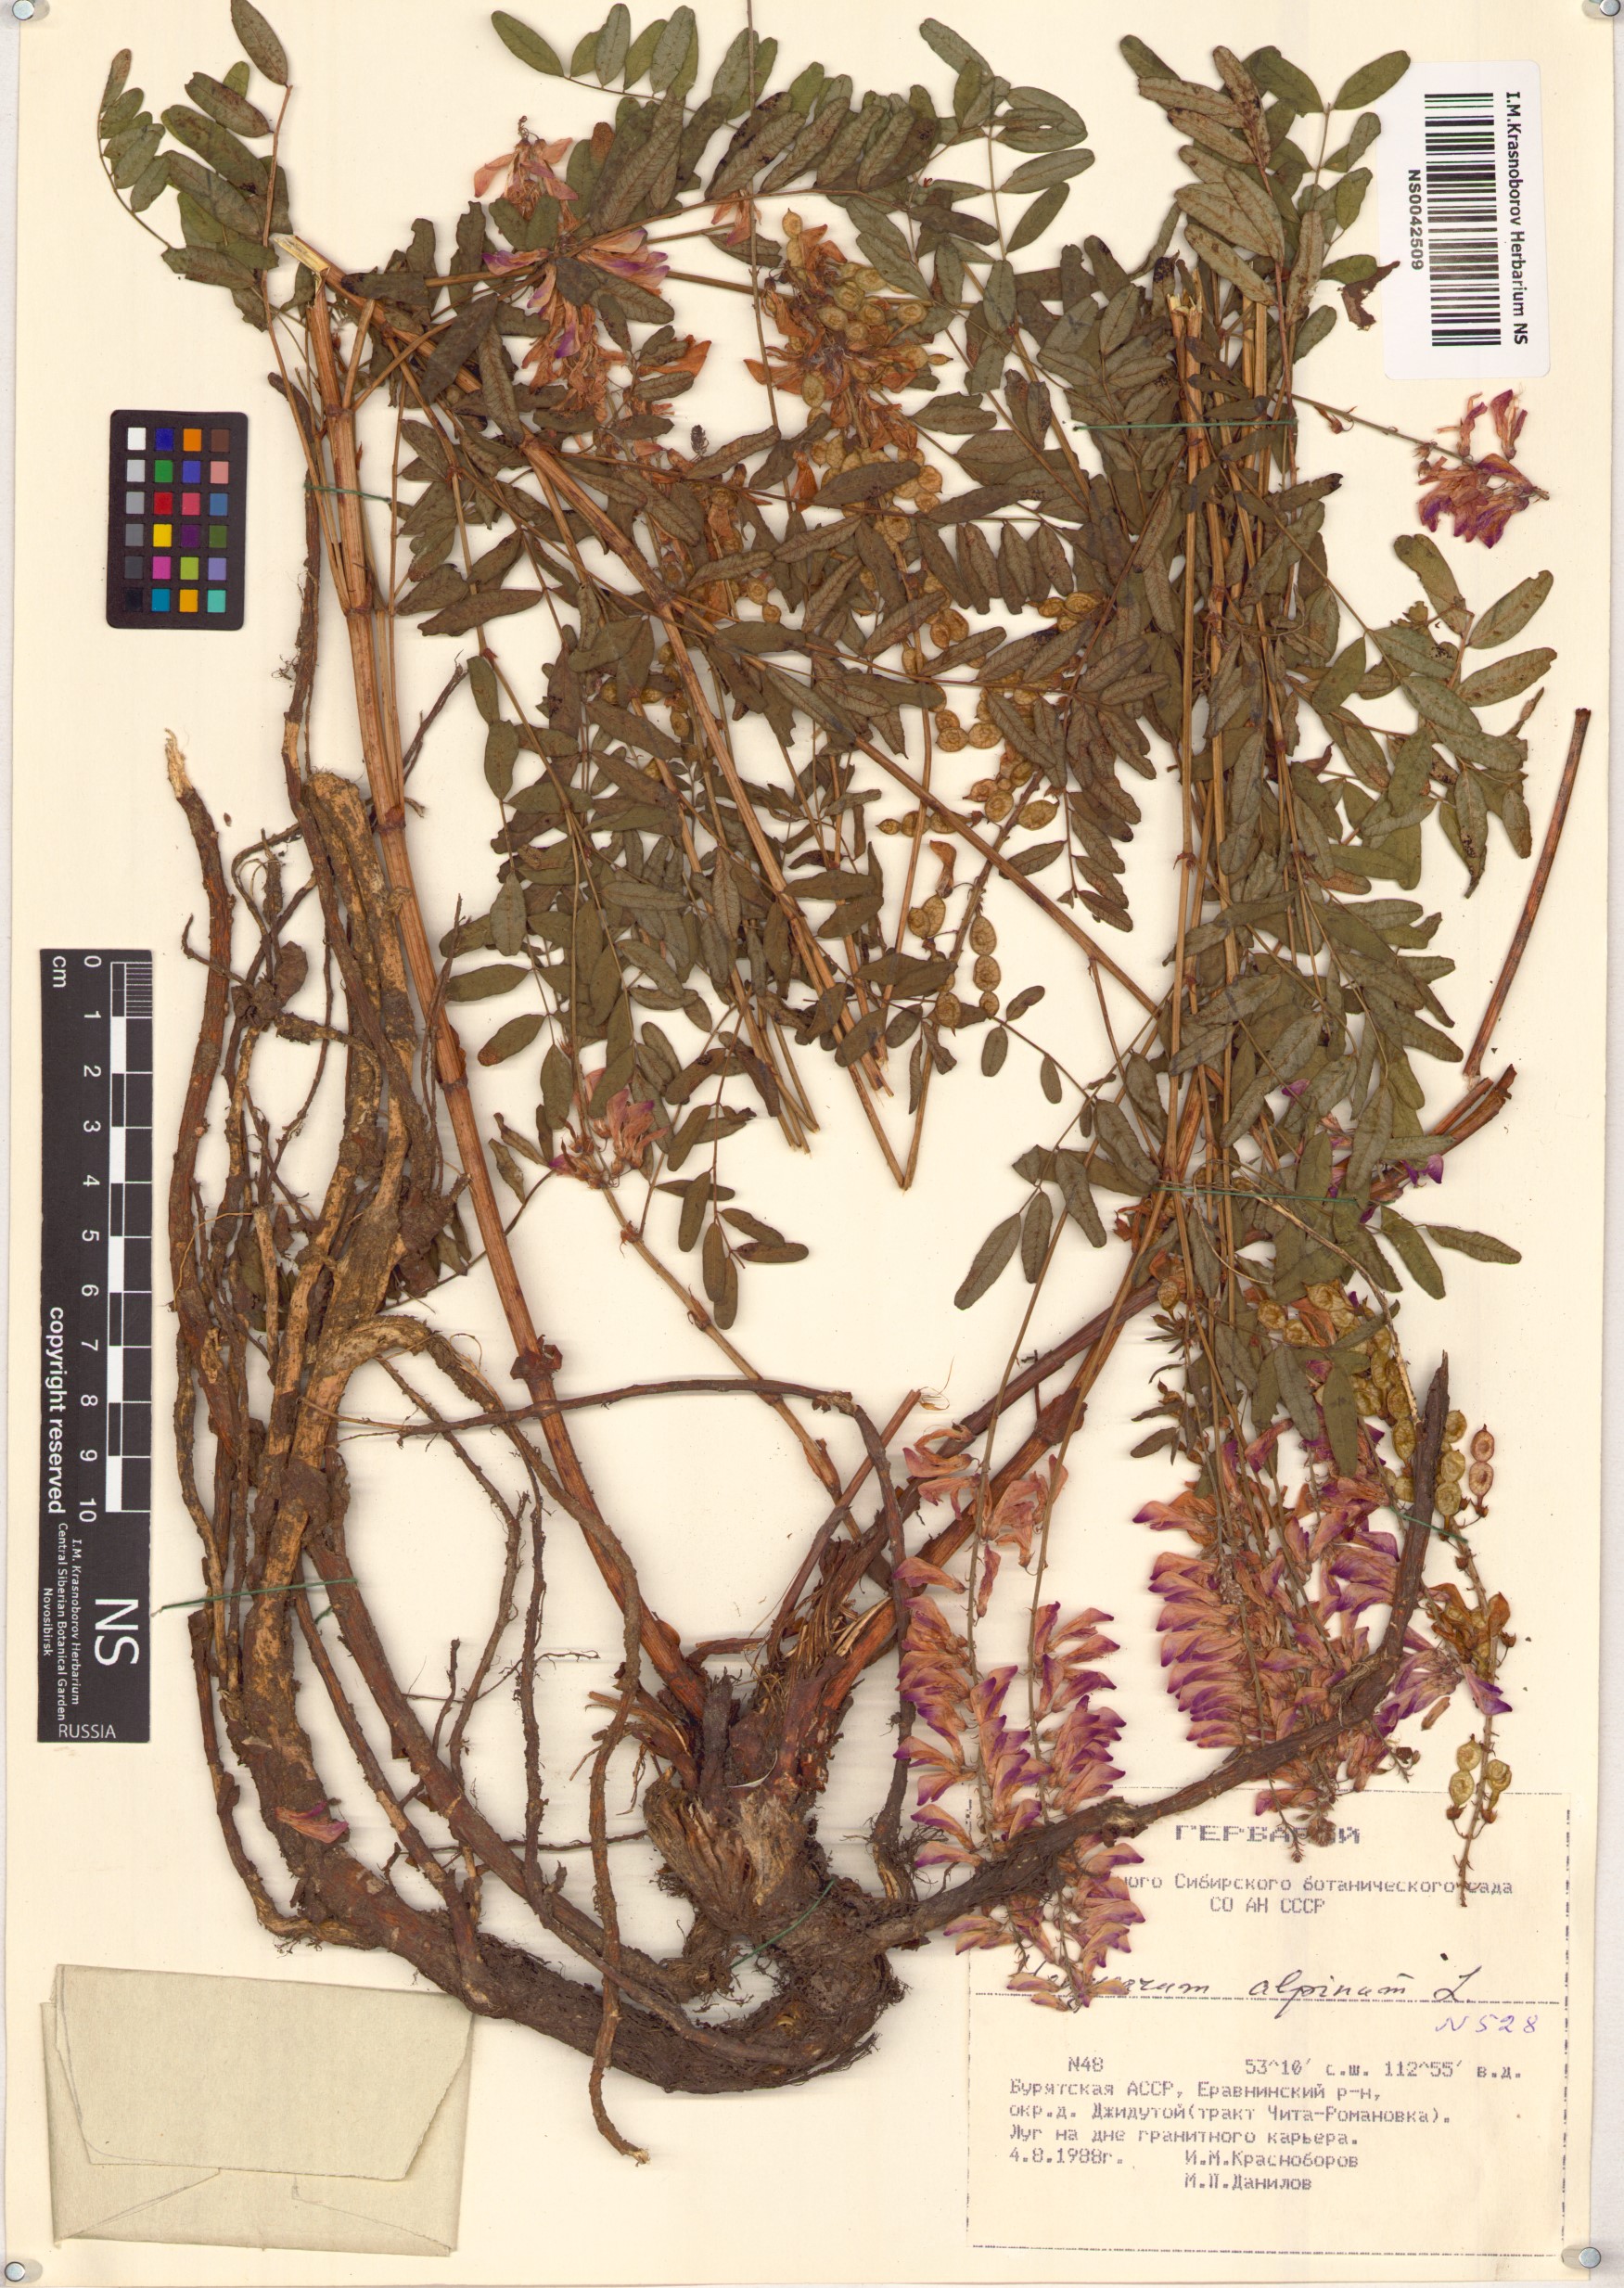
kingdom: Plantae
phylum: Tracheophyta
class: Magnoliopsida
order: Fabales
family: Fabaceae
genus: Hedysarum
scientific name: Hedysarum alpinum
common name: Alpine sweet-vetch
